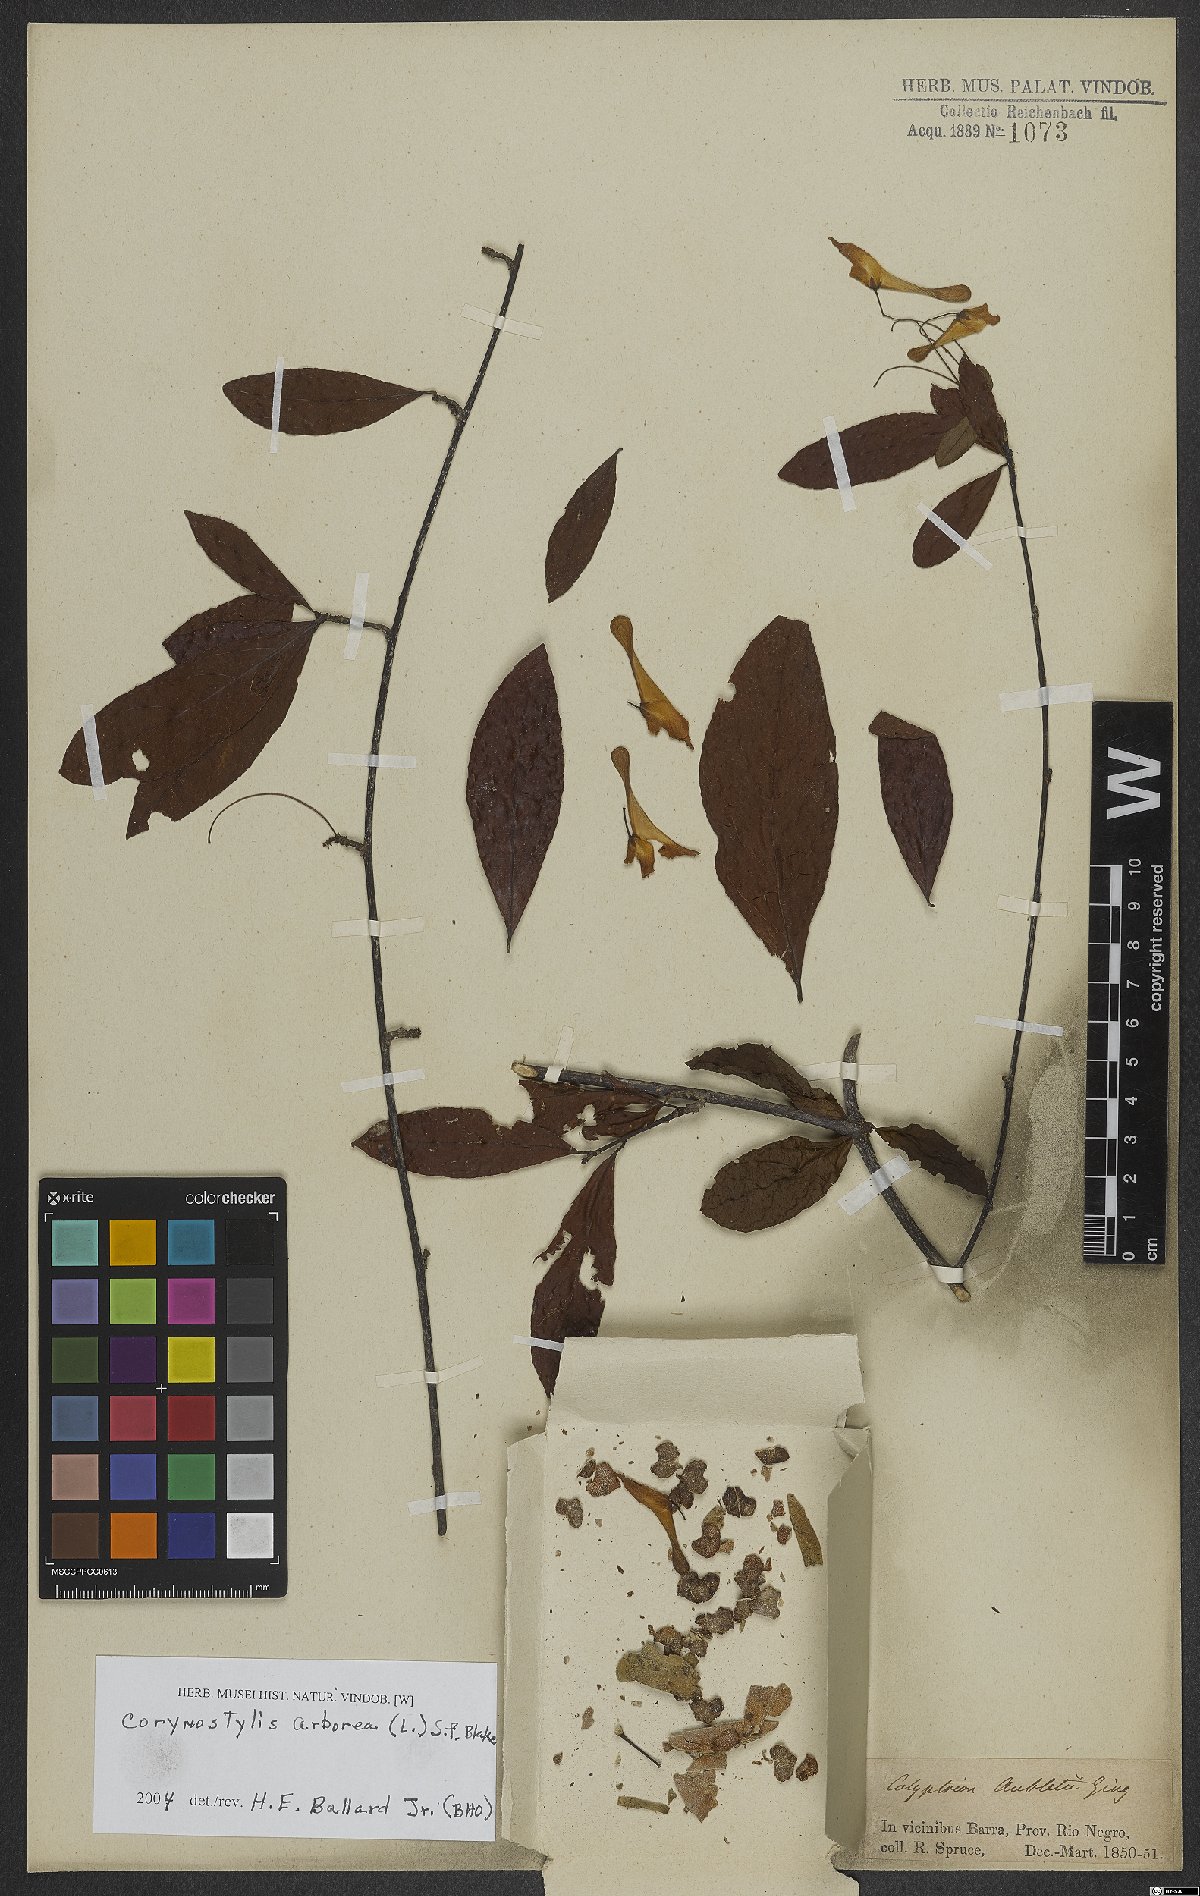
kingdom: Plantae
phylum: Tracheophyta
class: Magnoliopsida
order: Malpighiales
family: Violaceae
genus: Calyptrion
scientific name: Calyptrion arboreum
